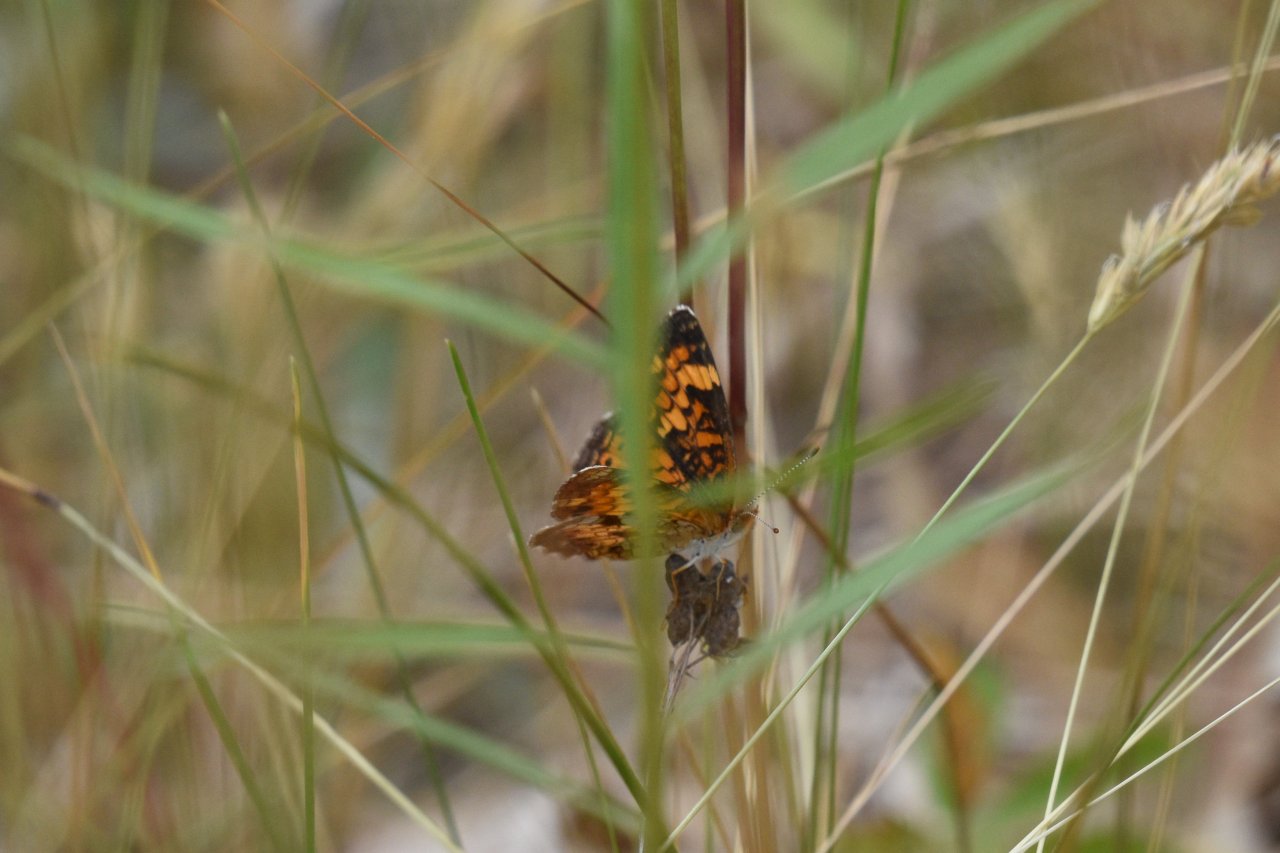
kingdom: Animalia
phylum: Arthropoda
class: Insecta
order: Lepidoptera
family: Nymphalidae
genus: Phyciodes
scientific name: Phyciodes tharos
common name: Northern Crescent
